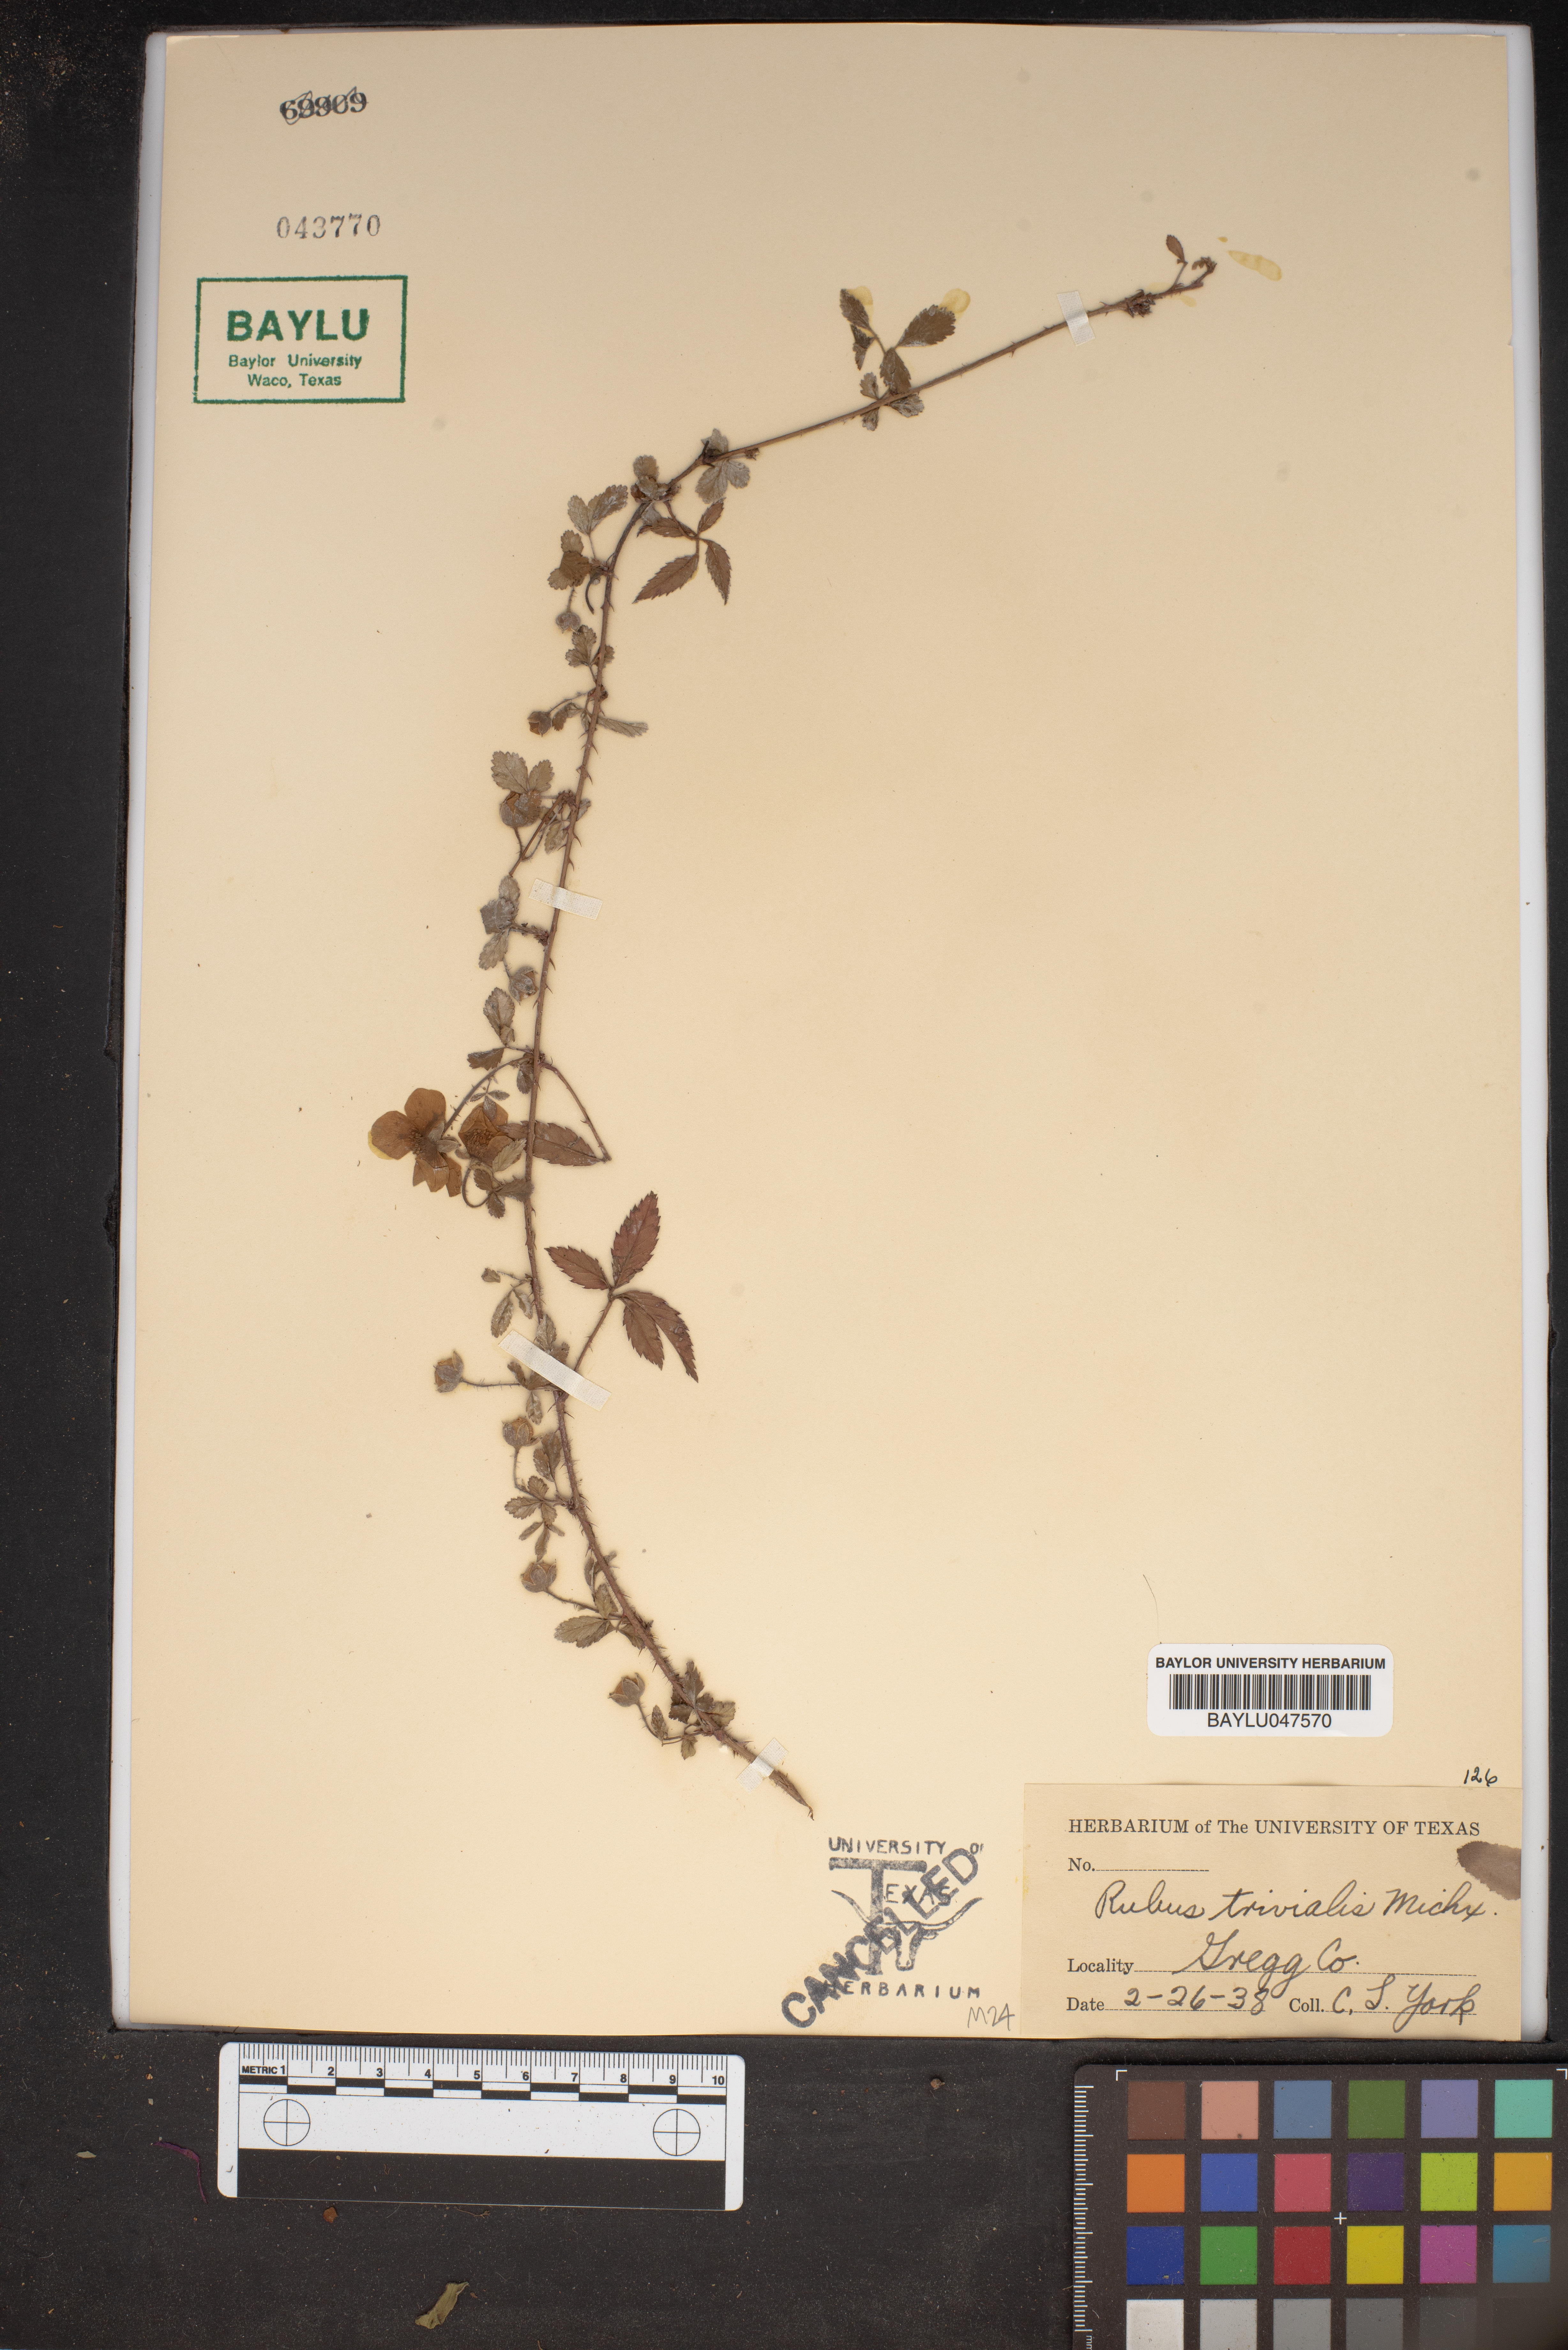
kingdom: Plantae
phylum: Tracheophyta
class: Magnoliopsida
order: Rosales
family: Rosaceae
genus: Rubus
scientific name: Rubus trivialis
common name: Southern dewberry
